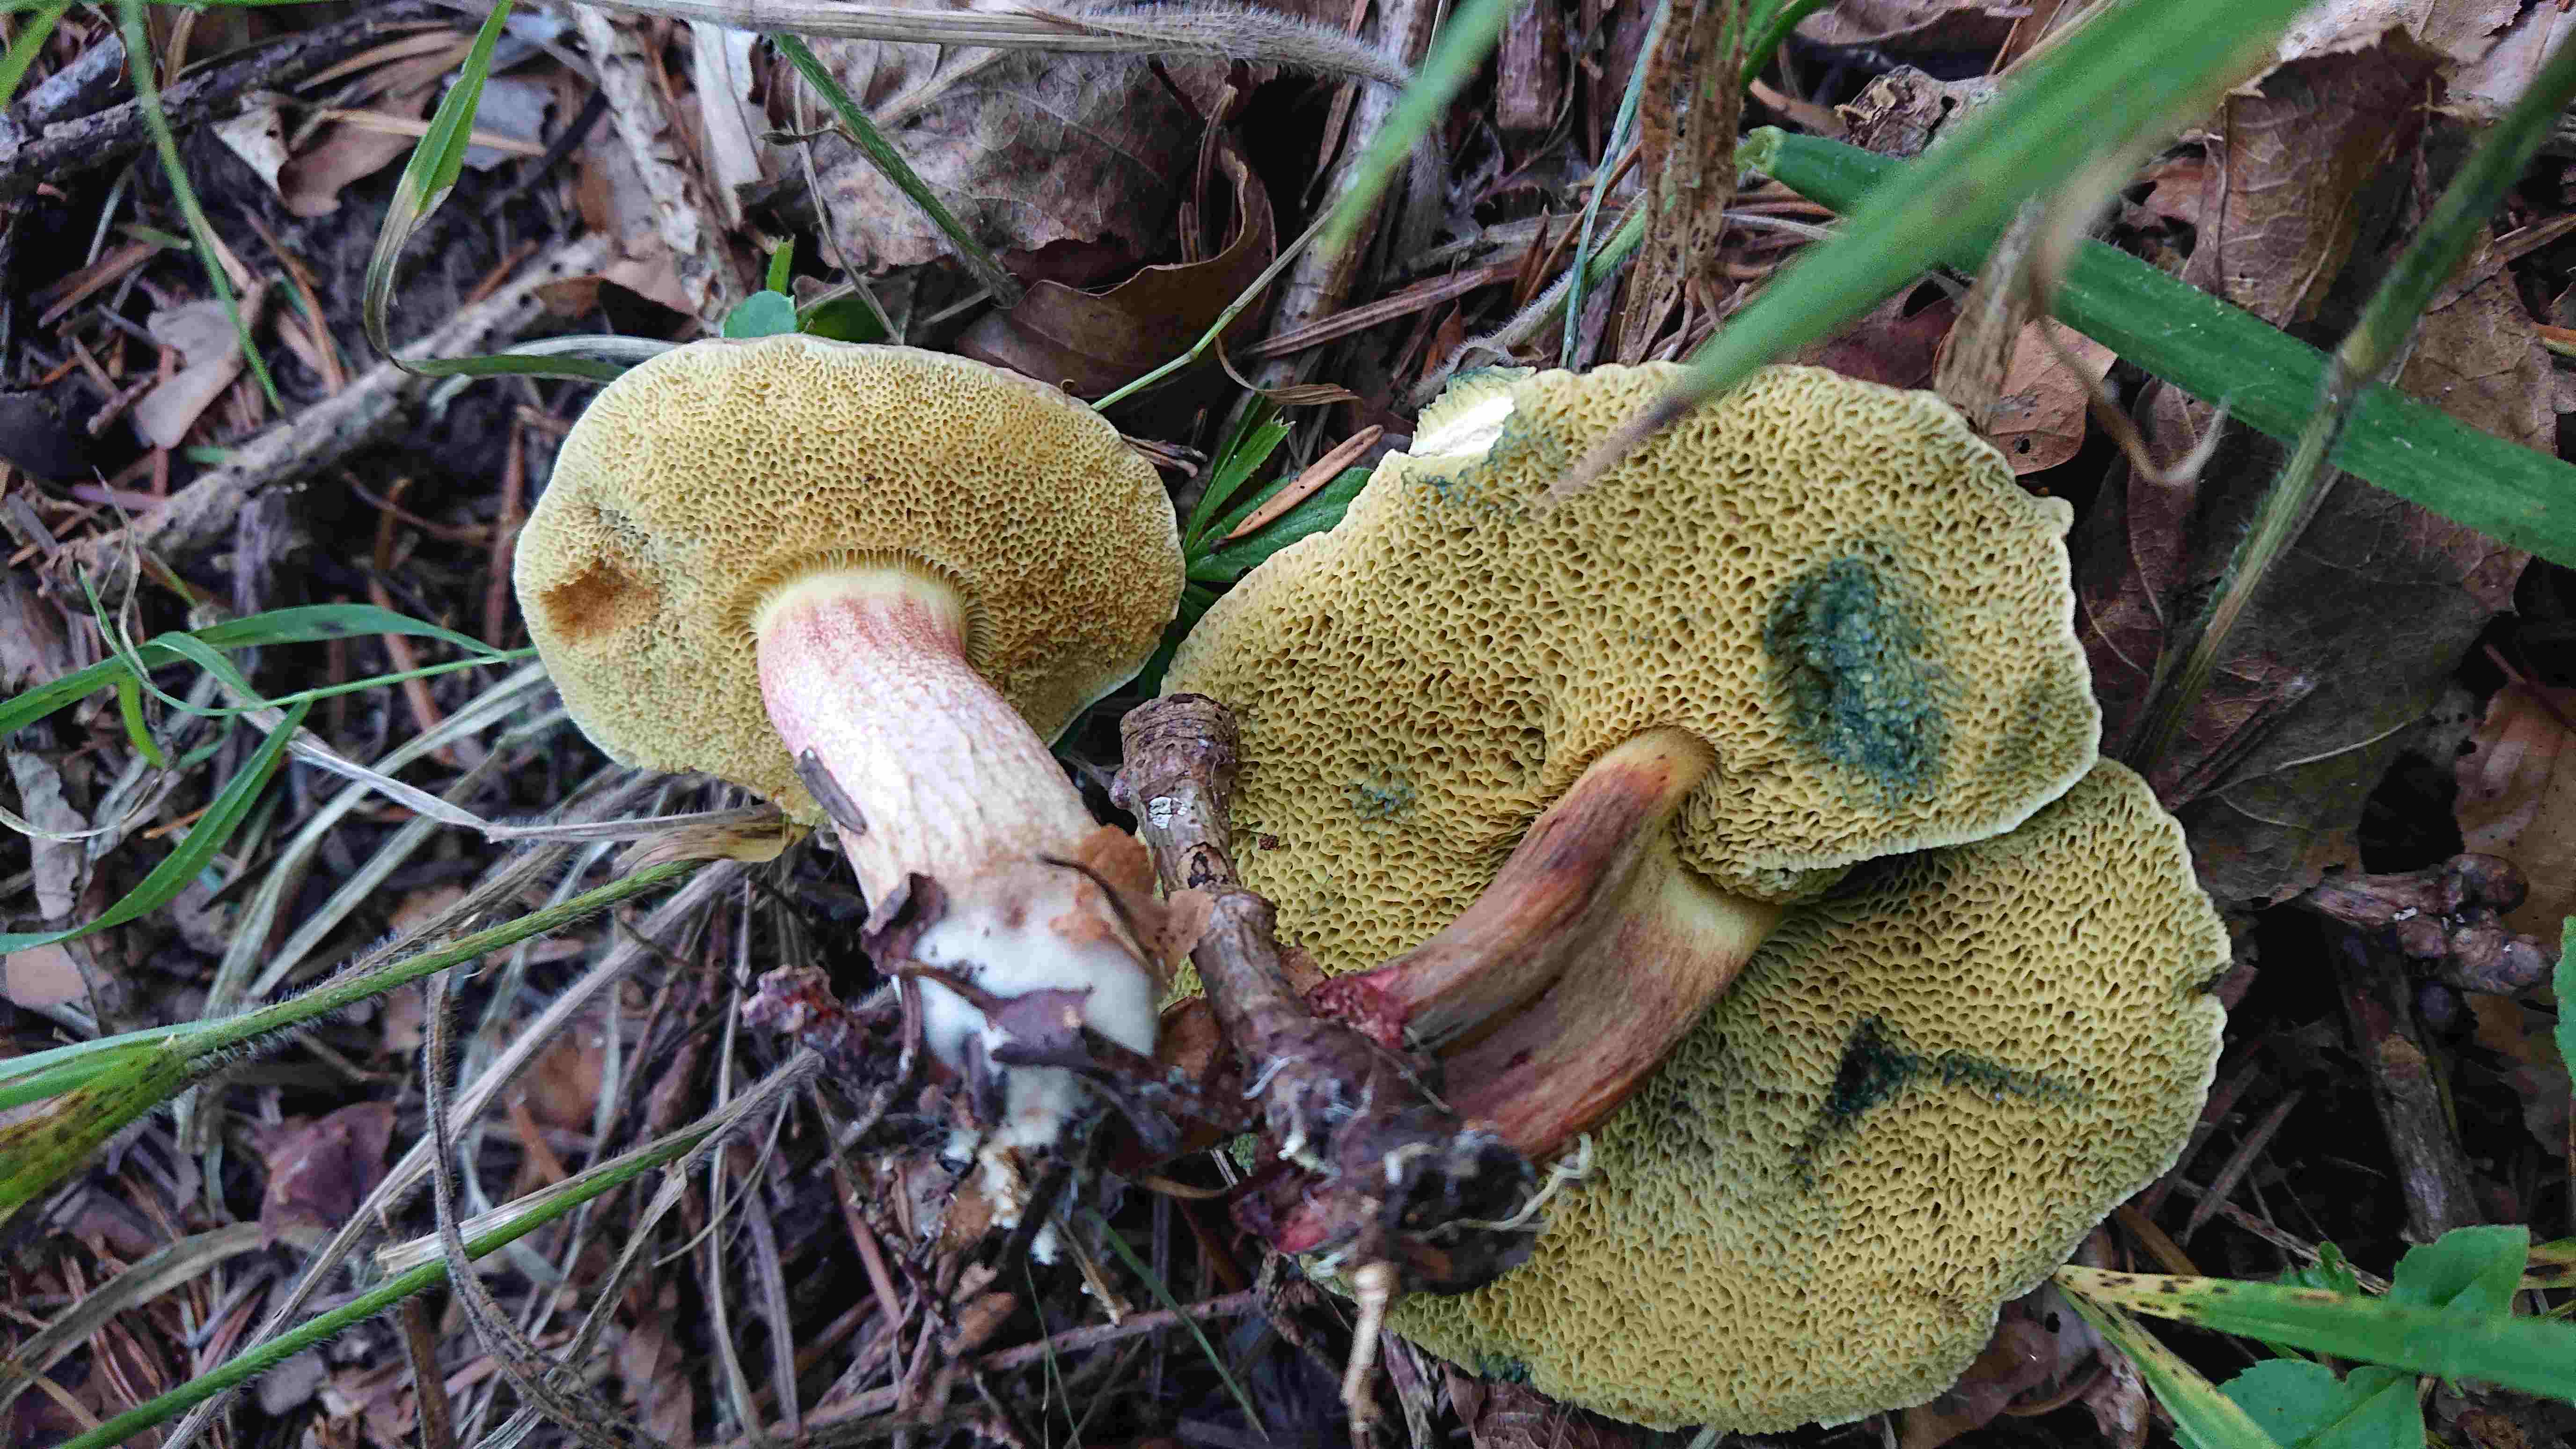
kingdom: Fungi
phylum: Basidiomycota
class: Agaricomycetes
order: Boletales
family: Boletaceae
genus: Xerocomellus
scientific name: Xerocomellus
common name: dværgrørhat
